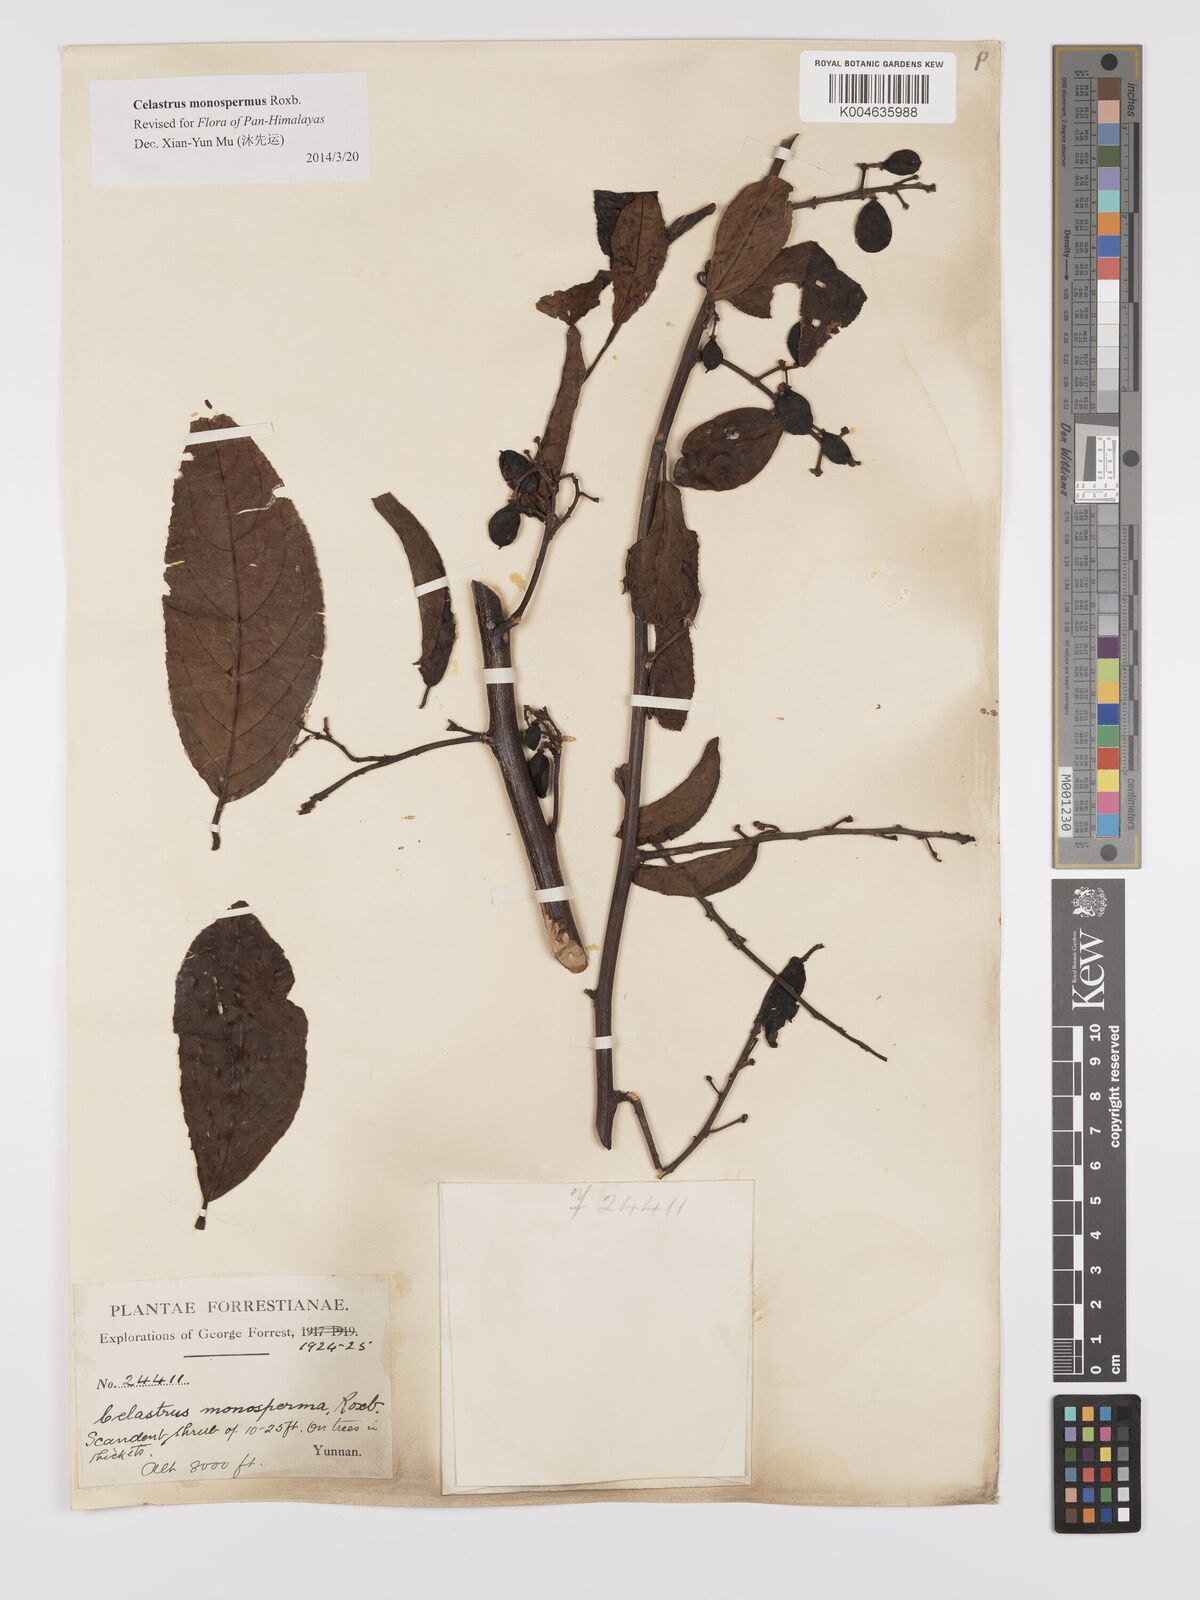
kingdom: Plantae
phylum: Tracheophyta
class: Magnoliopsida
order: Celastrales
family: Celastraceae
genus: Celastrus
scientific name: Celastrus monospermus
